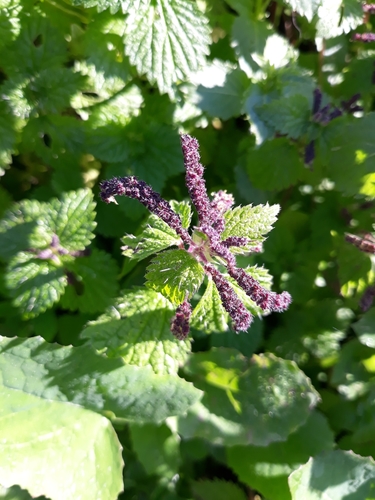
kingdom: Plantae
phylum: Tracheophyta
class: Magnoliopsida
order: Rosales
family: Urticaceae
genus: Urtica
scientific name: Urtica membranacea
